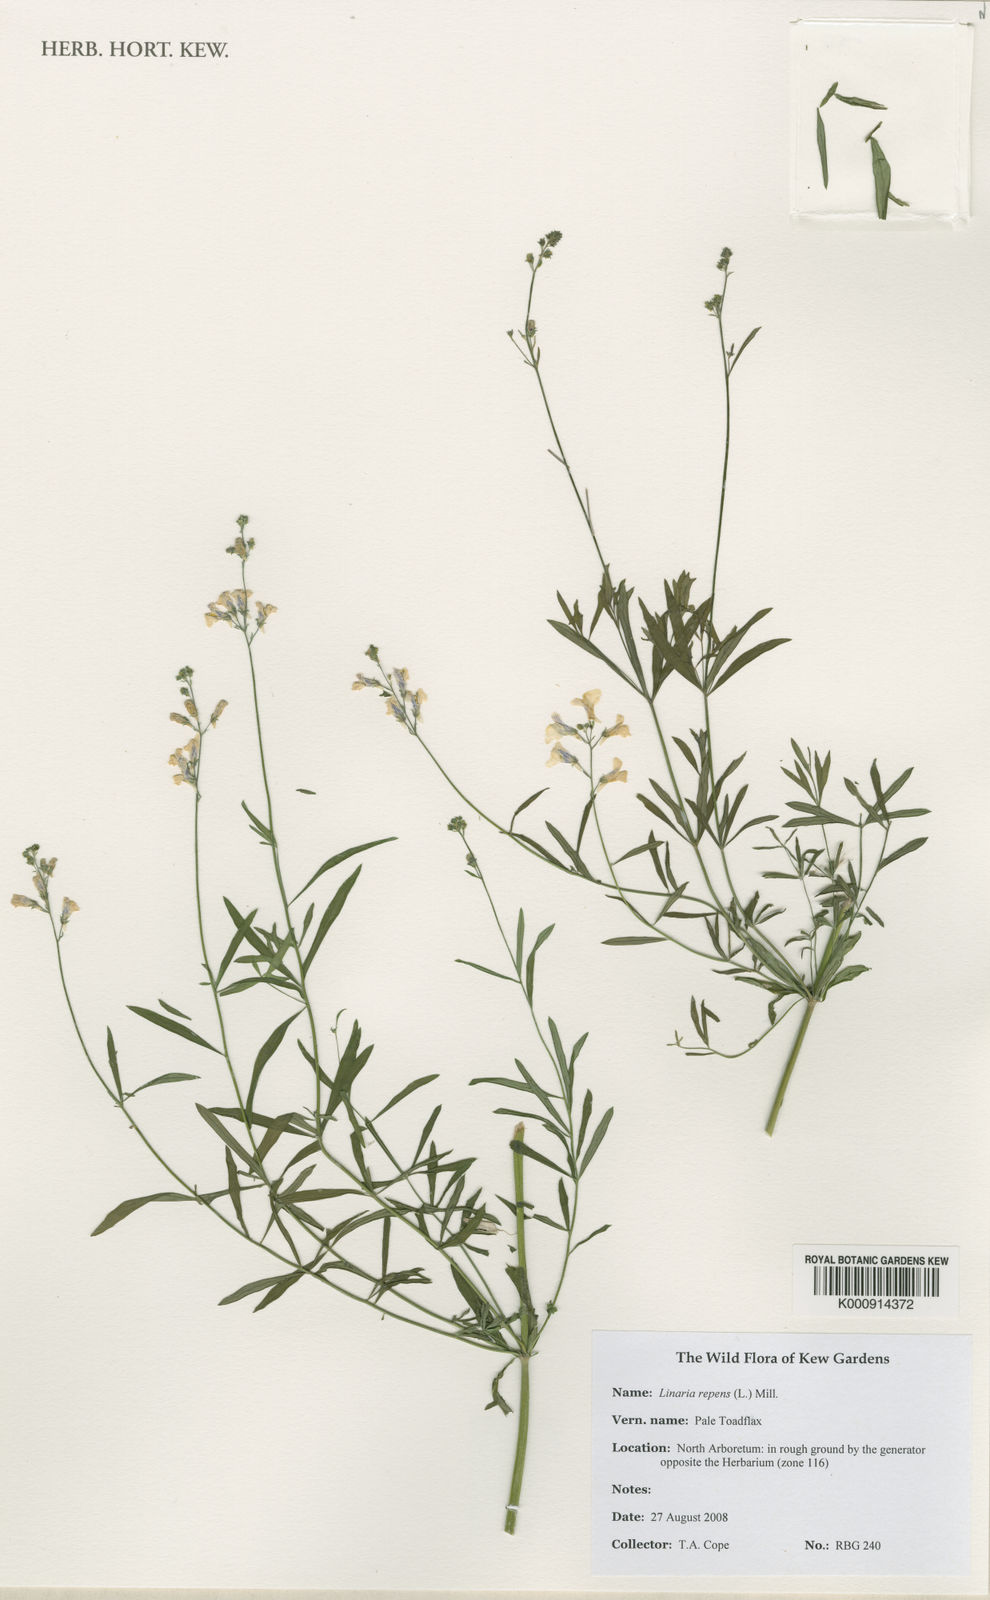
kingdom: Plantae
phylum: Tracheophyta
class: Magnoliopsida
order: Lamiales
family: Plantaginaceae
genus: Linaria
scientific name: Linaria repens
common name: Pale toadflax
